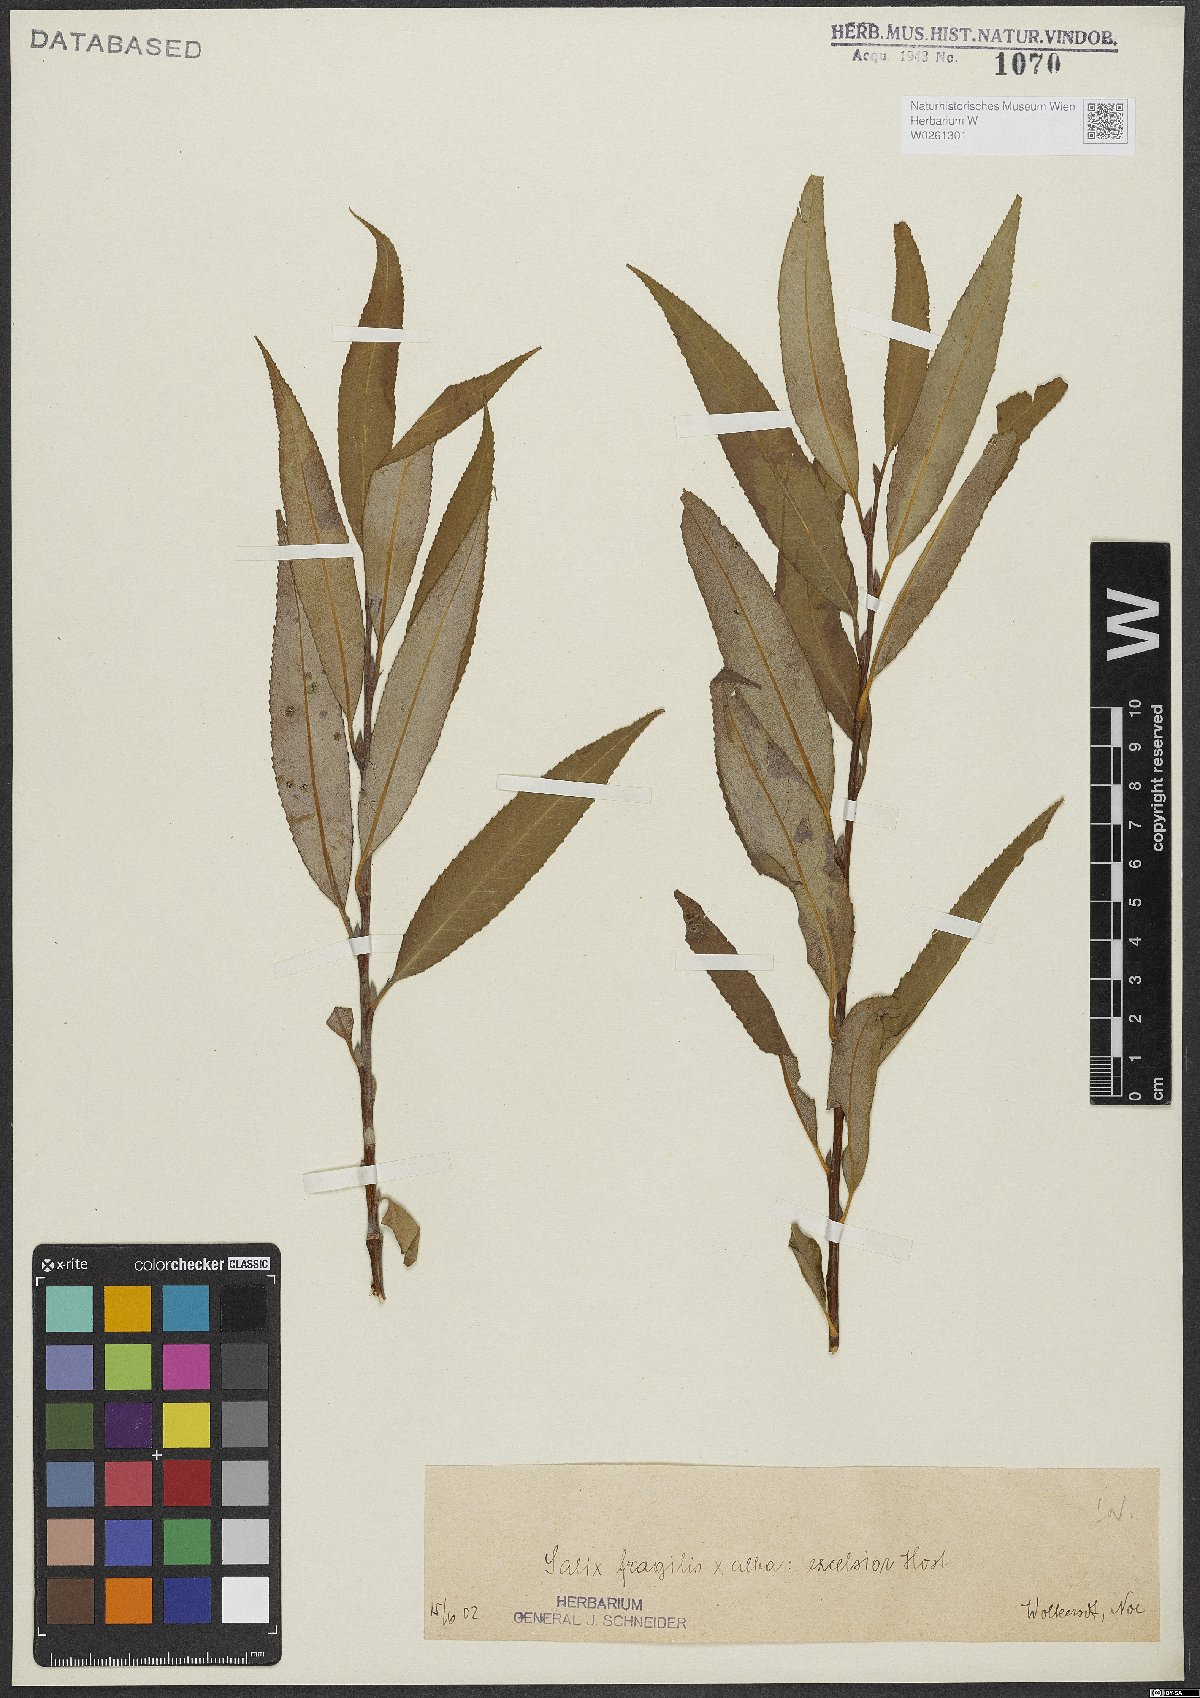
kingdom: Plantae
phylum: Tracheophyta
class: Magnoliopsida
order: Malpighiales
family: Salicaceae
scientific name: Salicaceae
